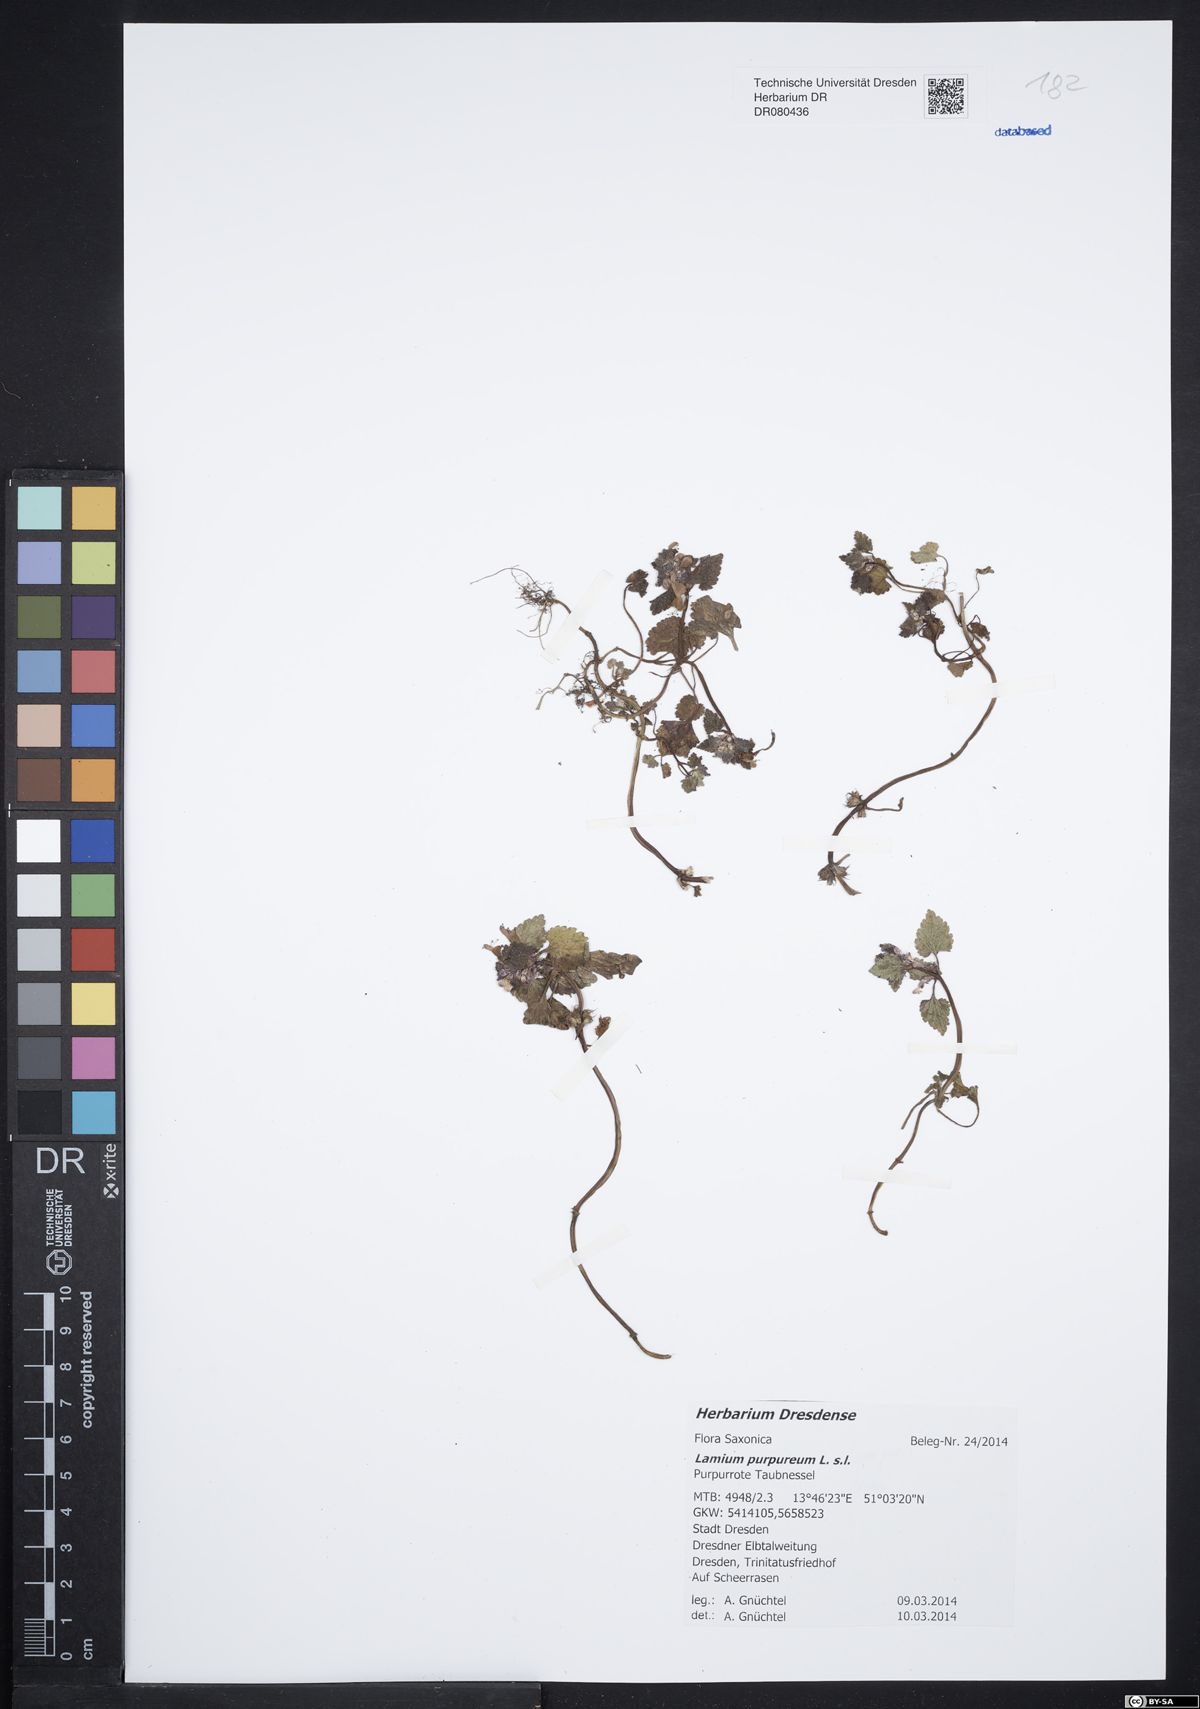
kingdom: Plantae
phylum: Tracheophyta
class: Magnoliopsida
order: Lamiales
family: Lamiaceae
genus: Lamium
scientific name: Lamium purpureum
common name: Red dead-nettle
